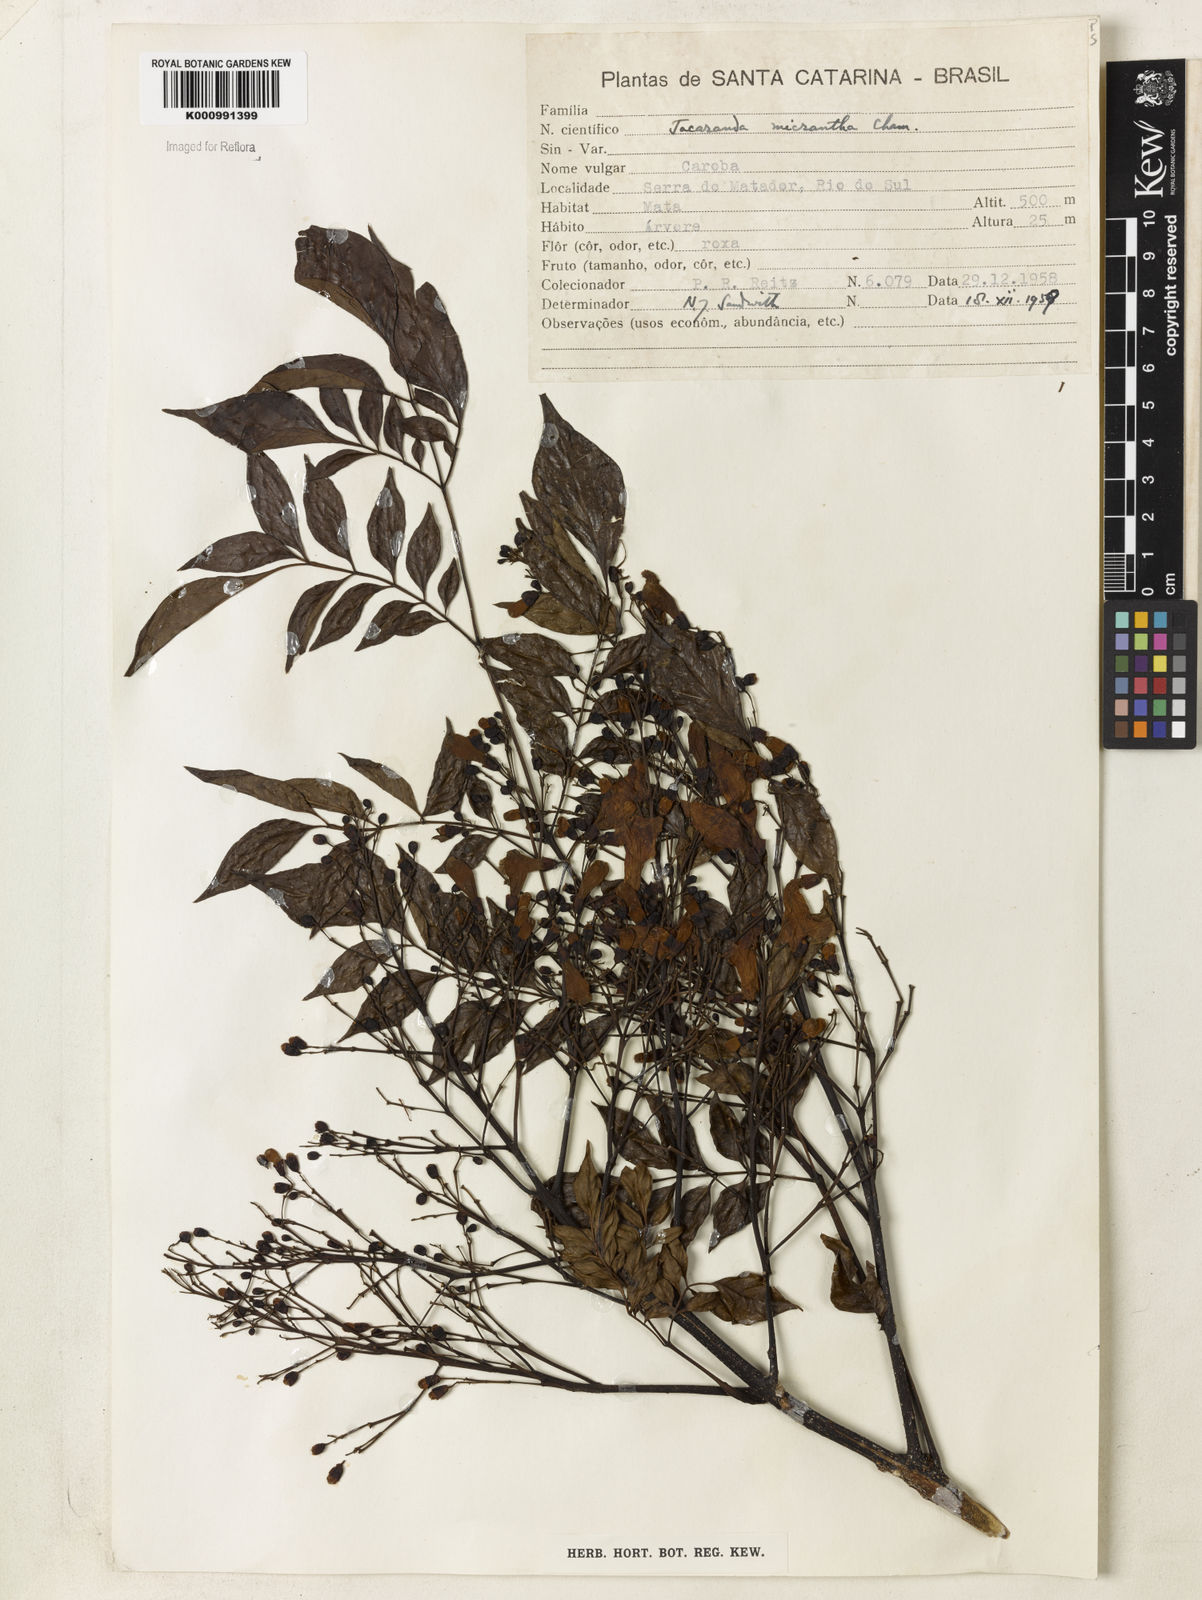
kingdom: Plantae
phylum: Tracheophyta
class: Magnoliopsida
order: Lamiales
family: Bignoniaceae
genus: Jacaranda
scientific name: Jacaranda micrantha
